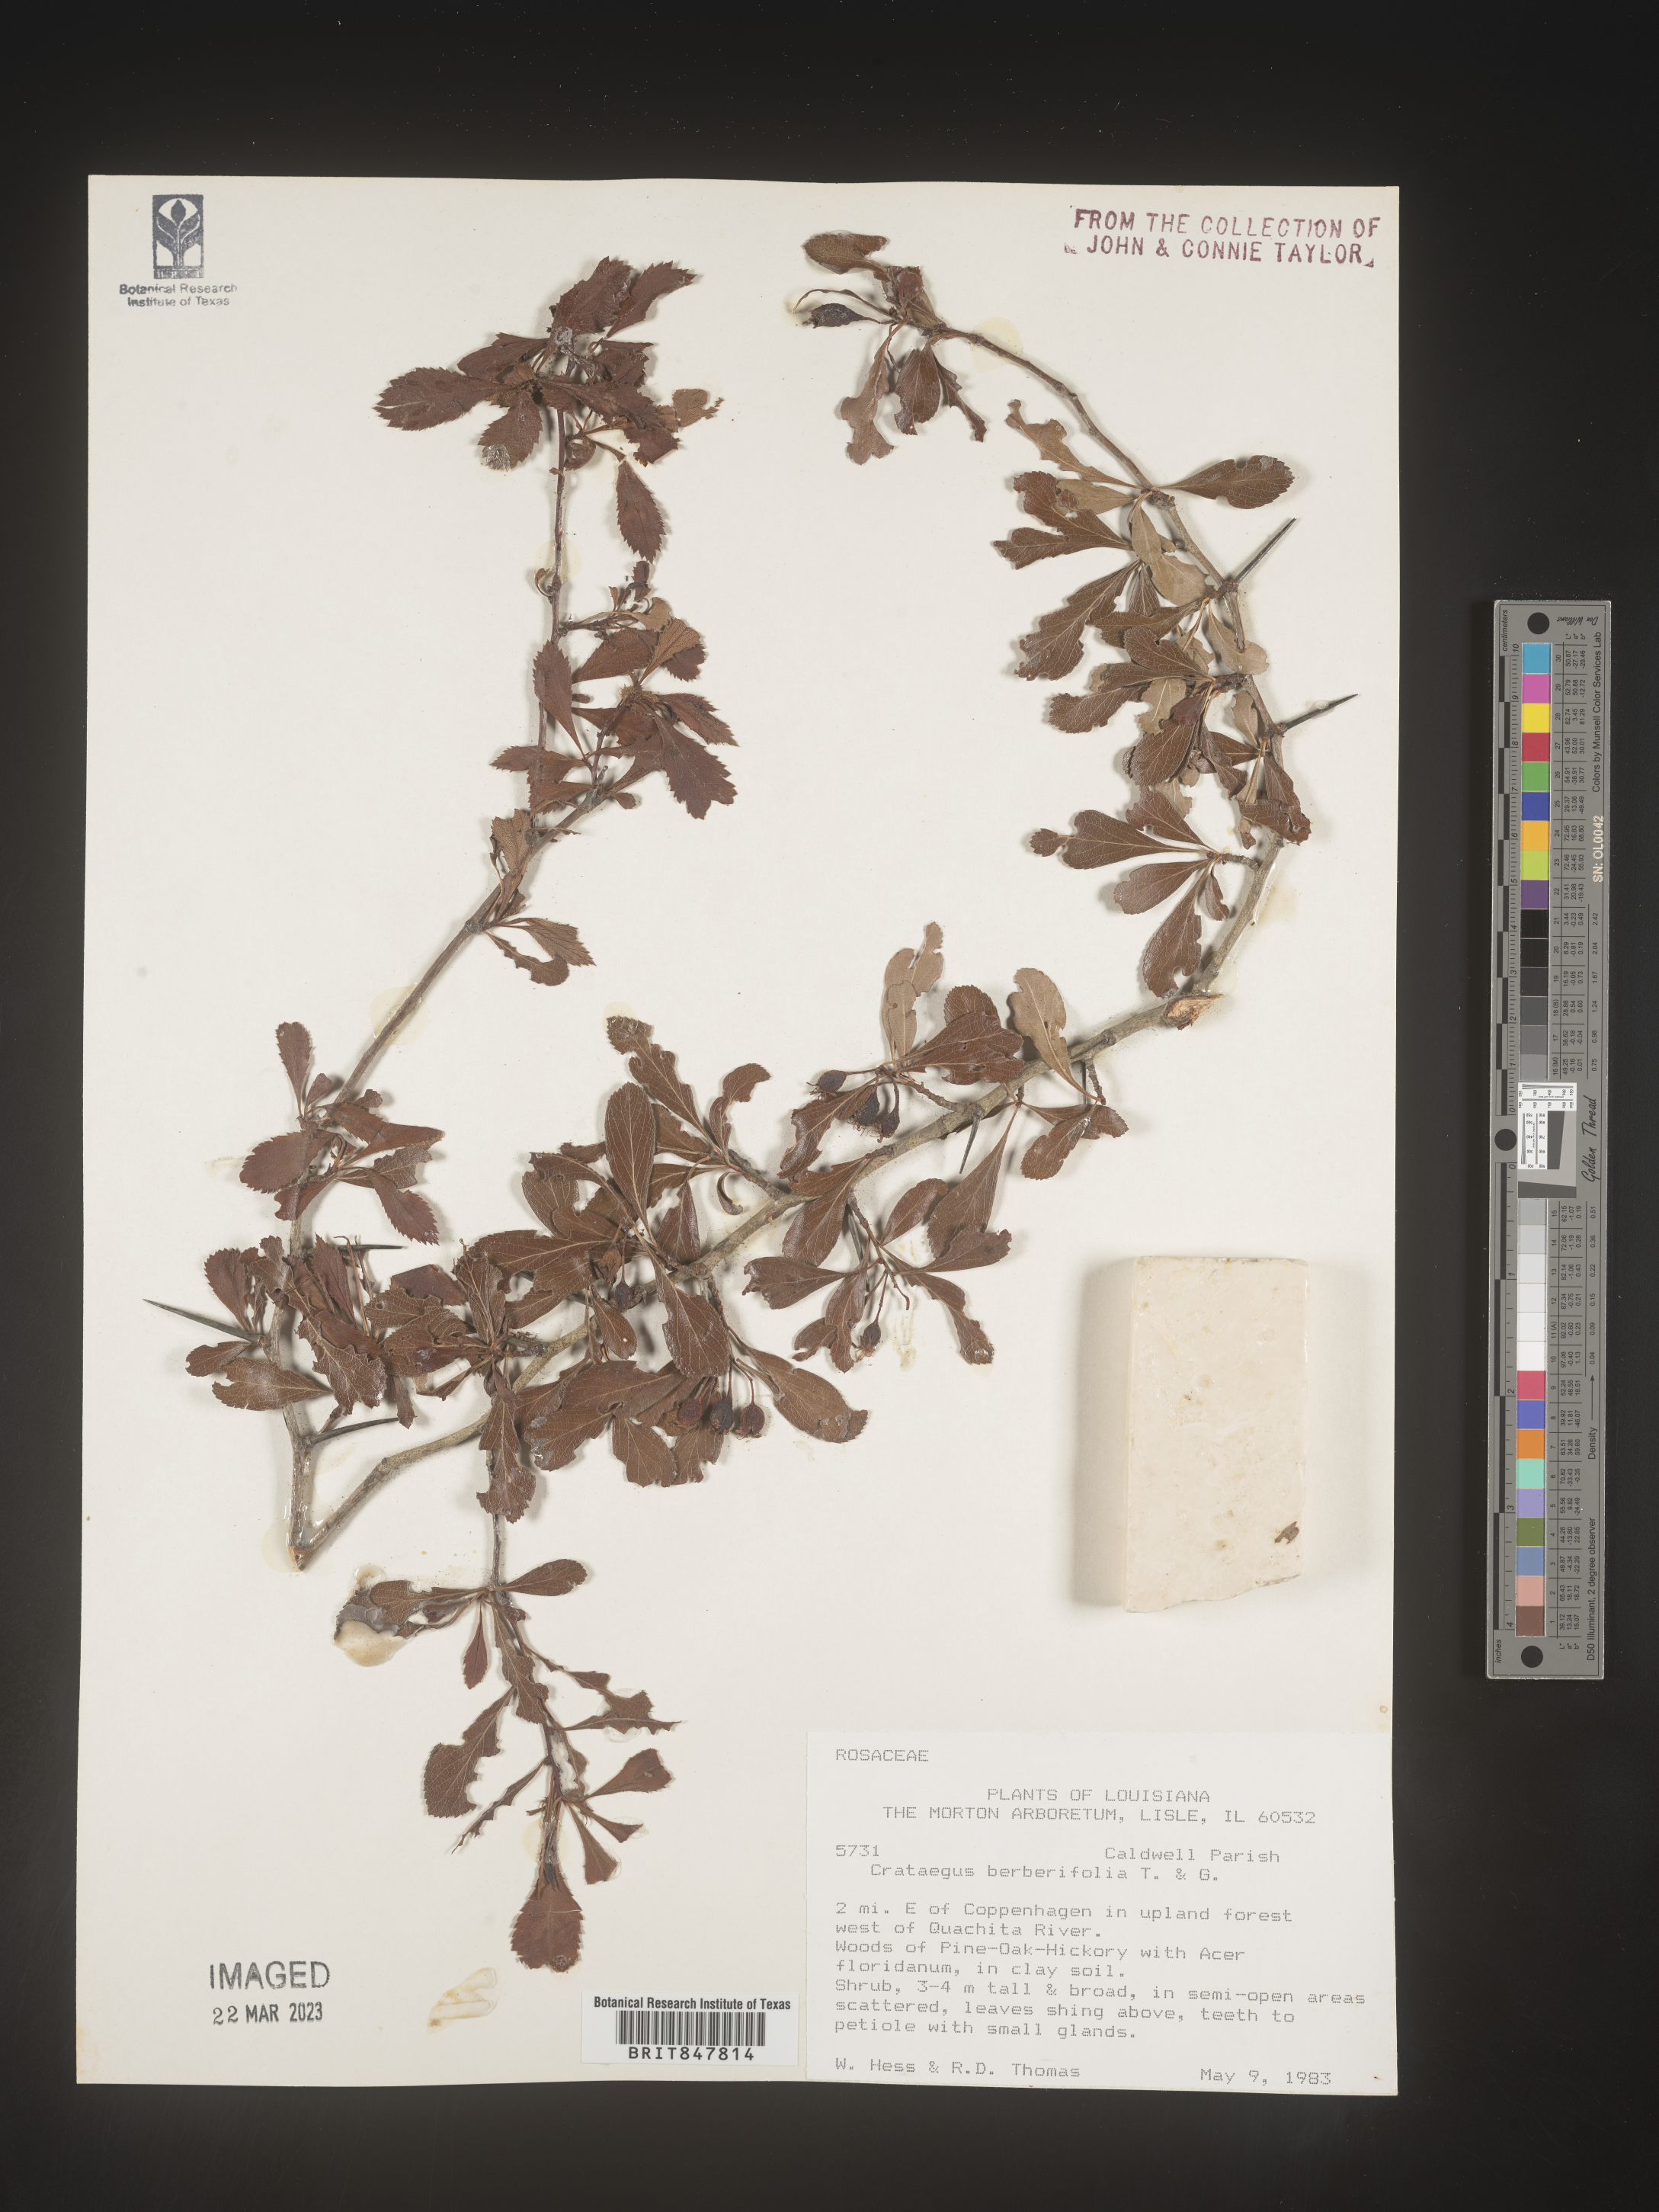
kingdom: Plantae
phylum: Tracheophyta
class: Magnoliopsida
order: Rosales
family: Rosaceae
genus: Crataegus
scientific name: Crataegus
